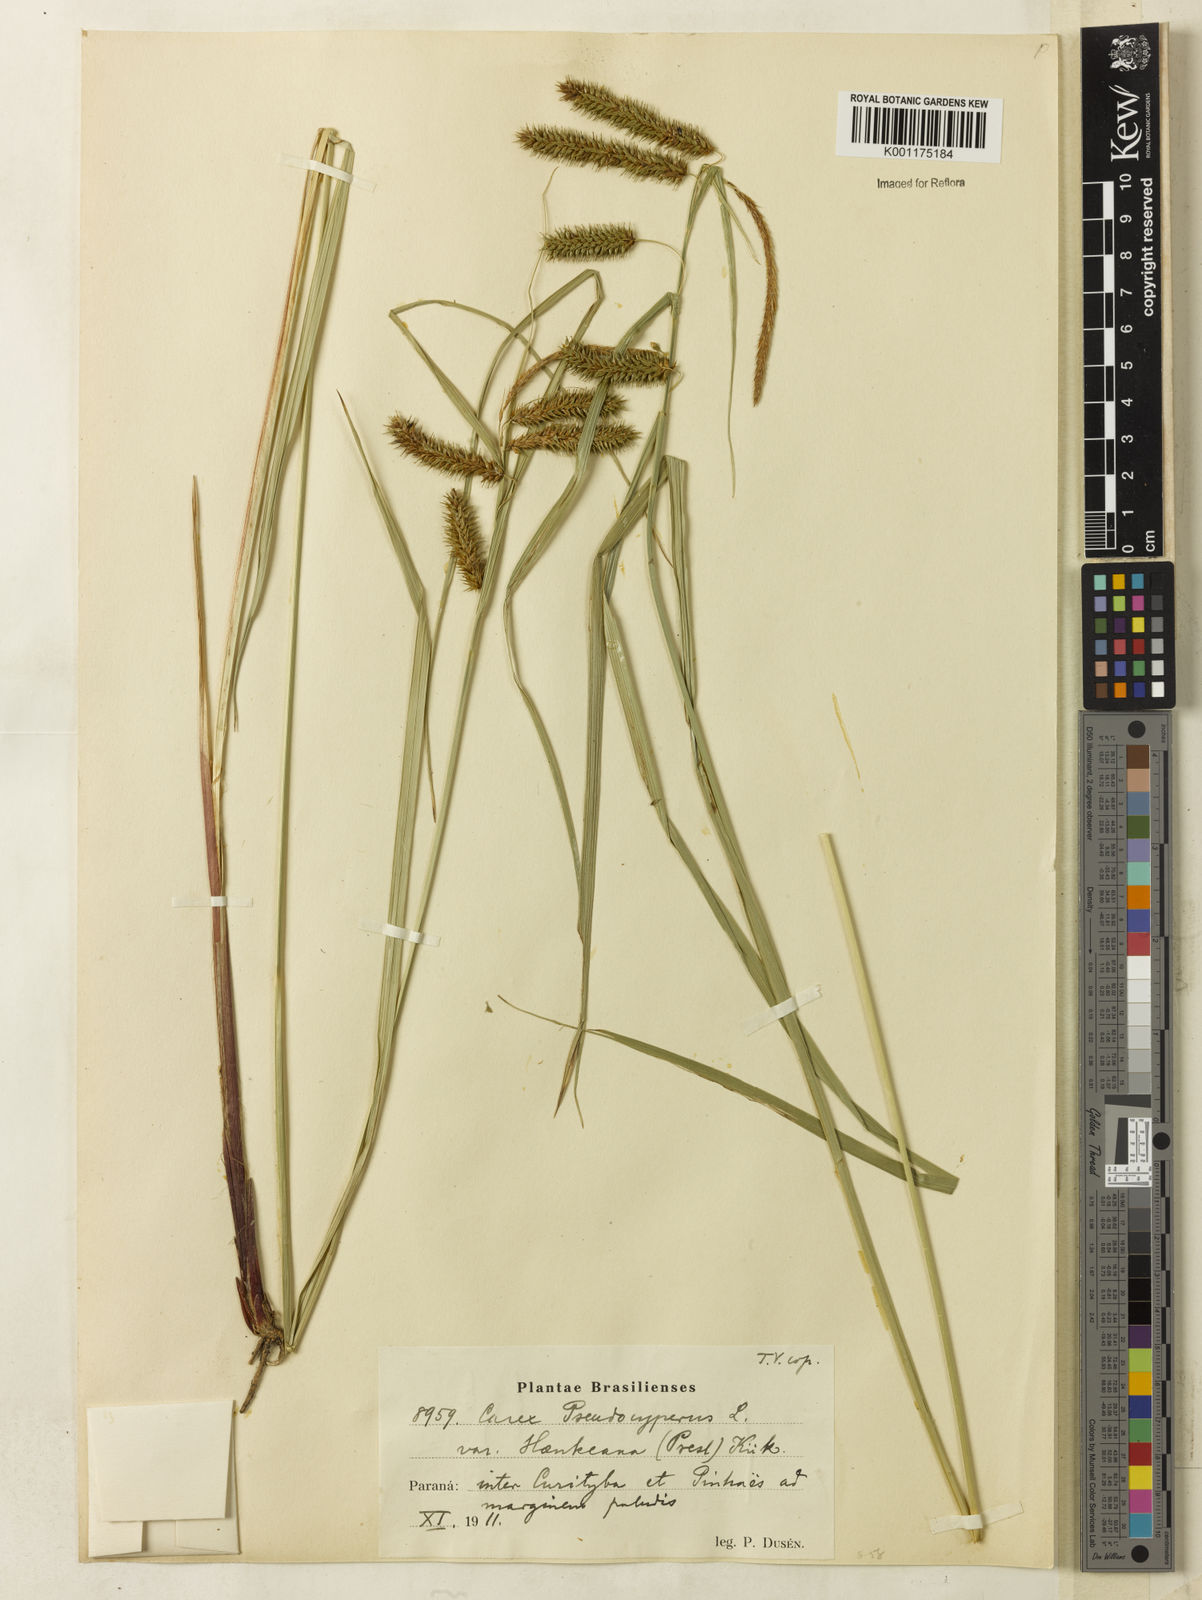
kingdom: Plantae
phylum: Tracheophyta
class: Liliopsida
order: Poales
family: Cyperaceae
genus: Carex
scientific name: Carex polysticha
